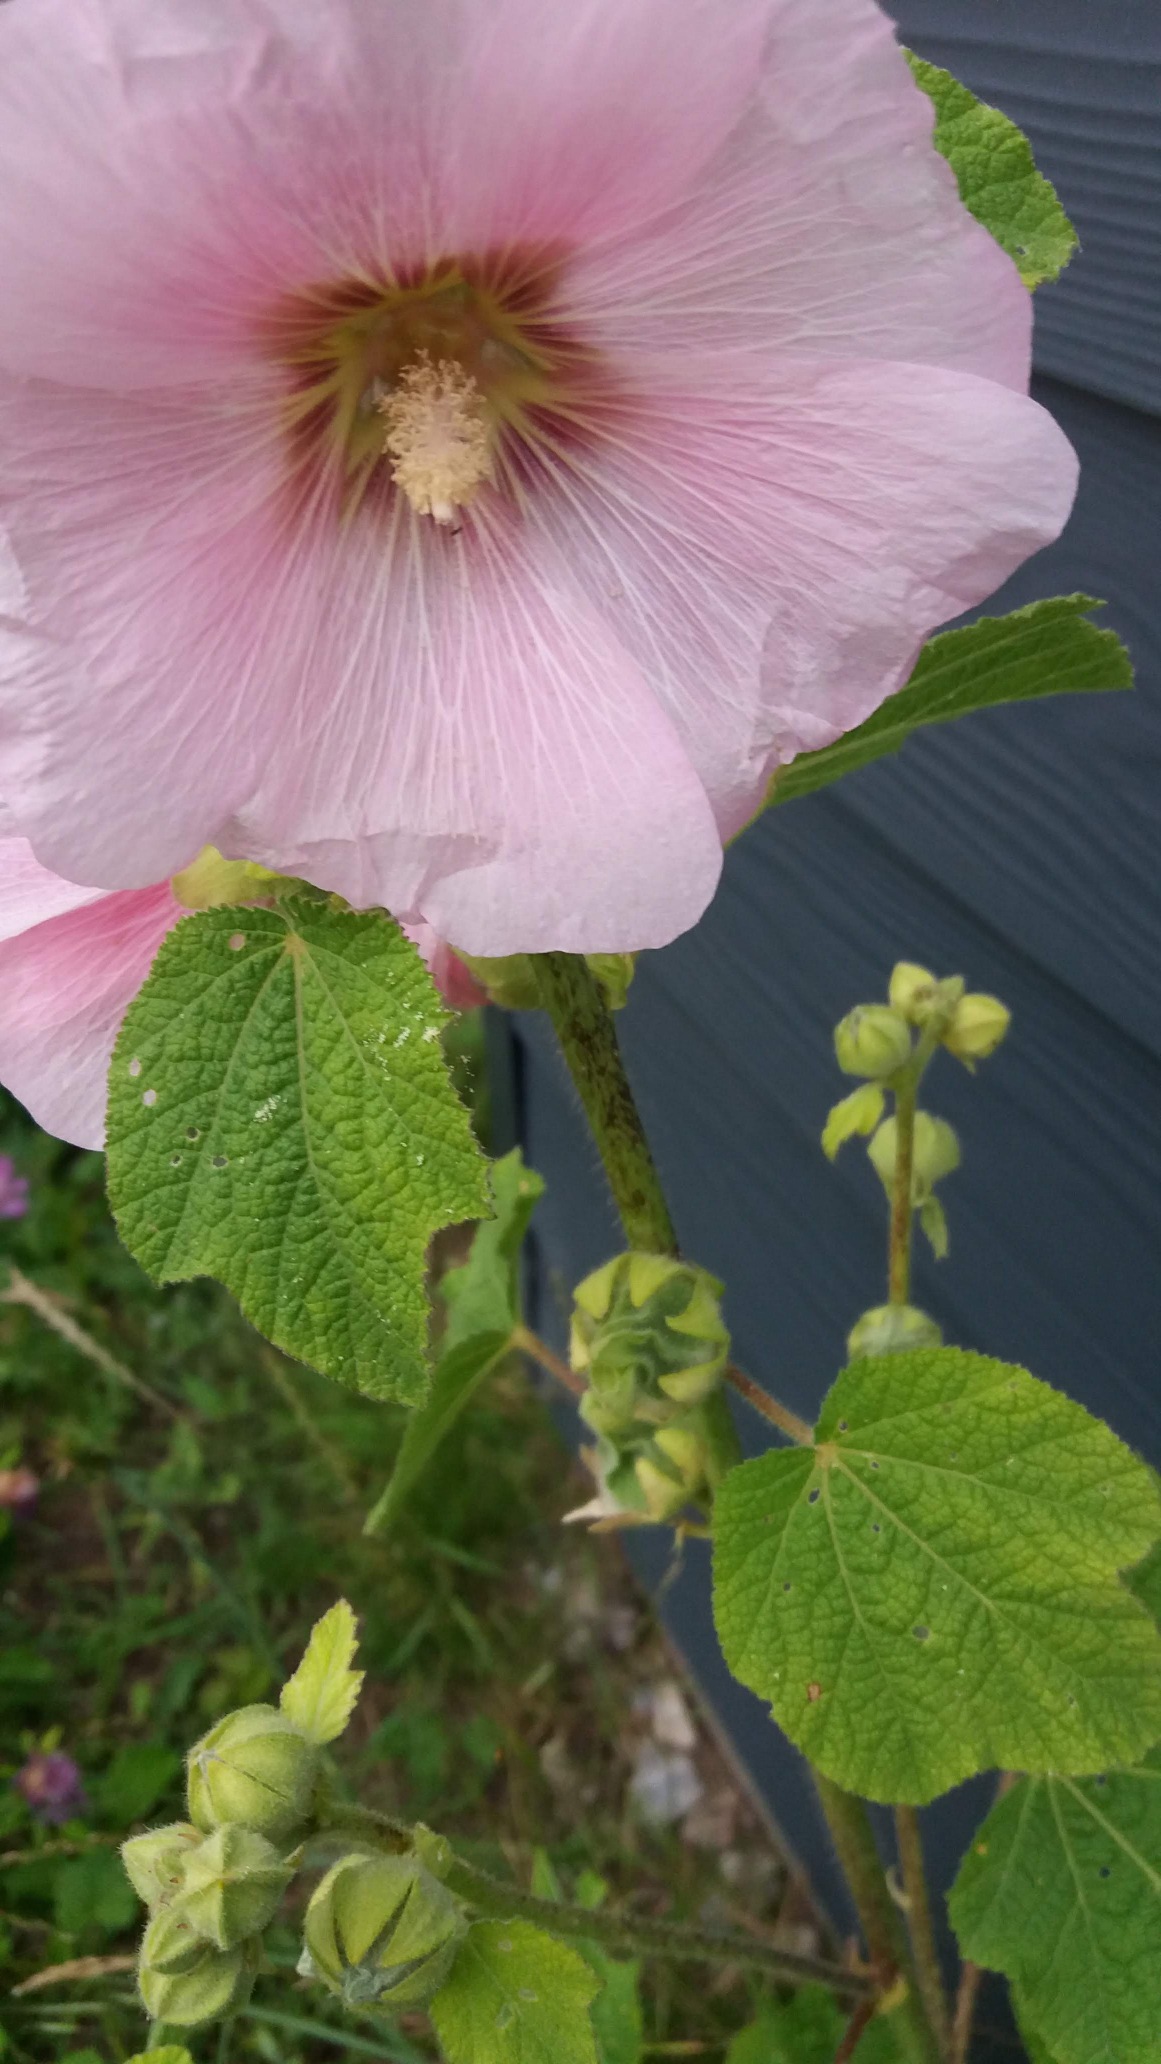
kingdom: Plantae
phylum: Tracheophyta
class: Magnoliopsida
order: Malvales
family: Malvaceae
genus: Alcea
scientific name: Alcea rosea
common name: Have-stokrose
